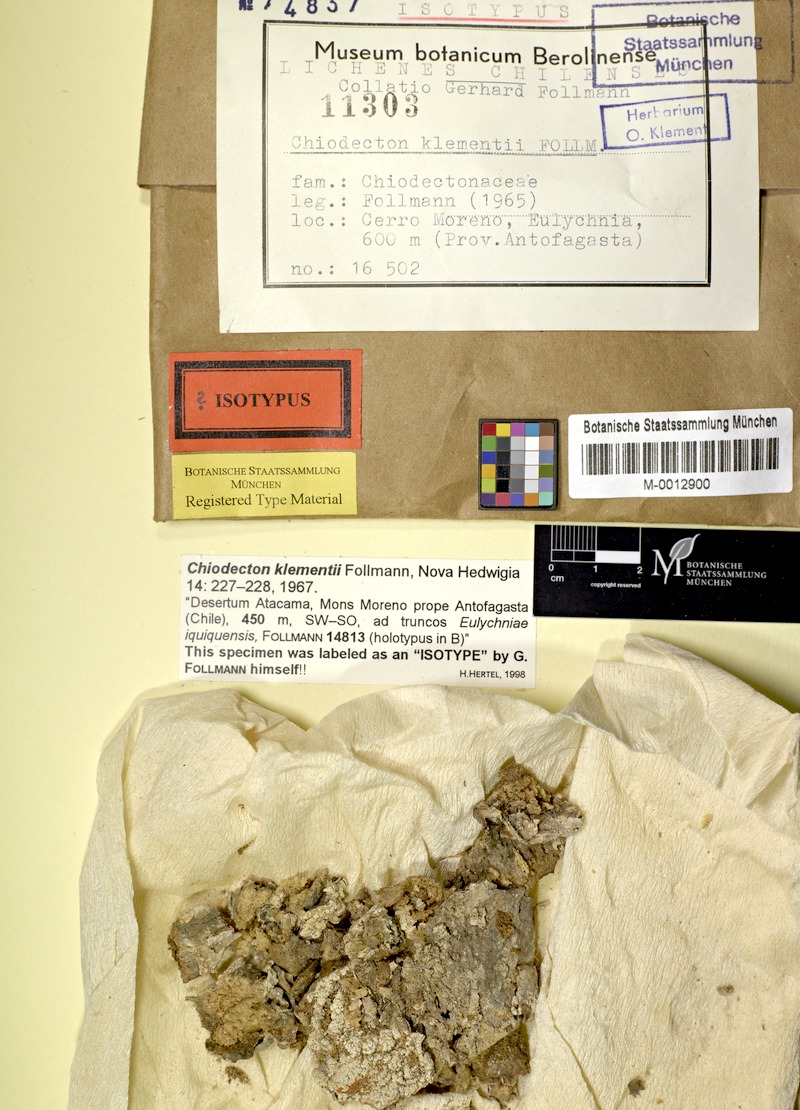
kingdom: Fungi
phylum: Ascomycota
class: Arthoniomycetes
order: Arthoniales
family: Roccellographaceae
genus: Fulvophyton
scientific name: Fulvophyton klementii
